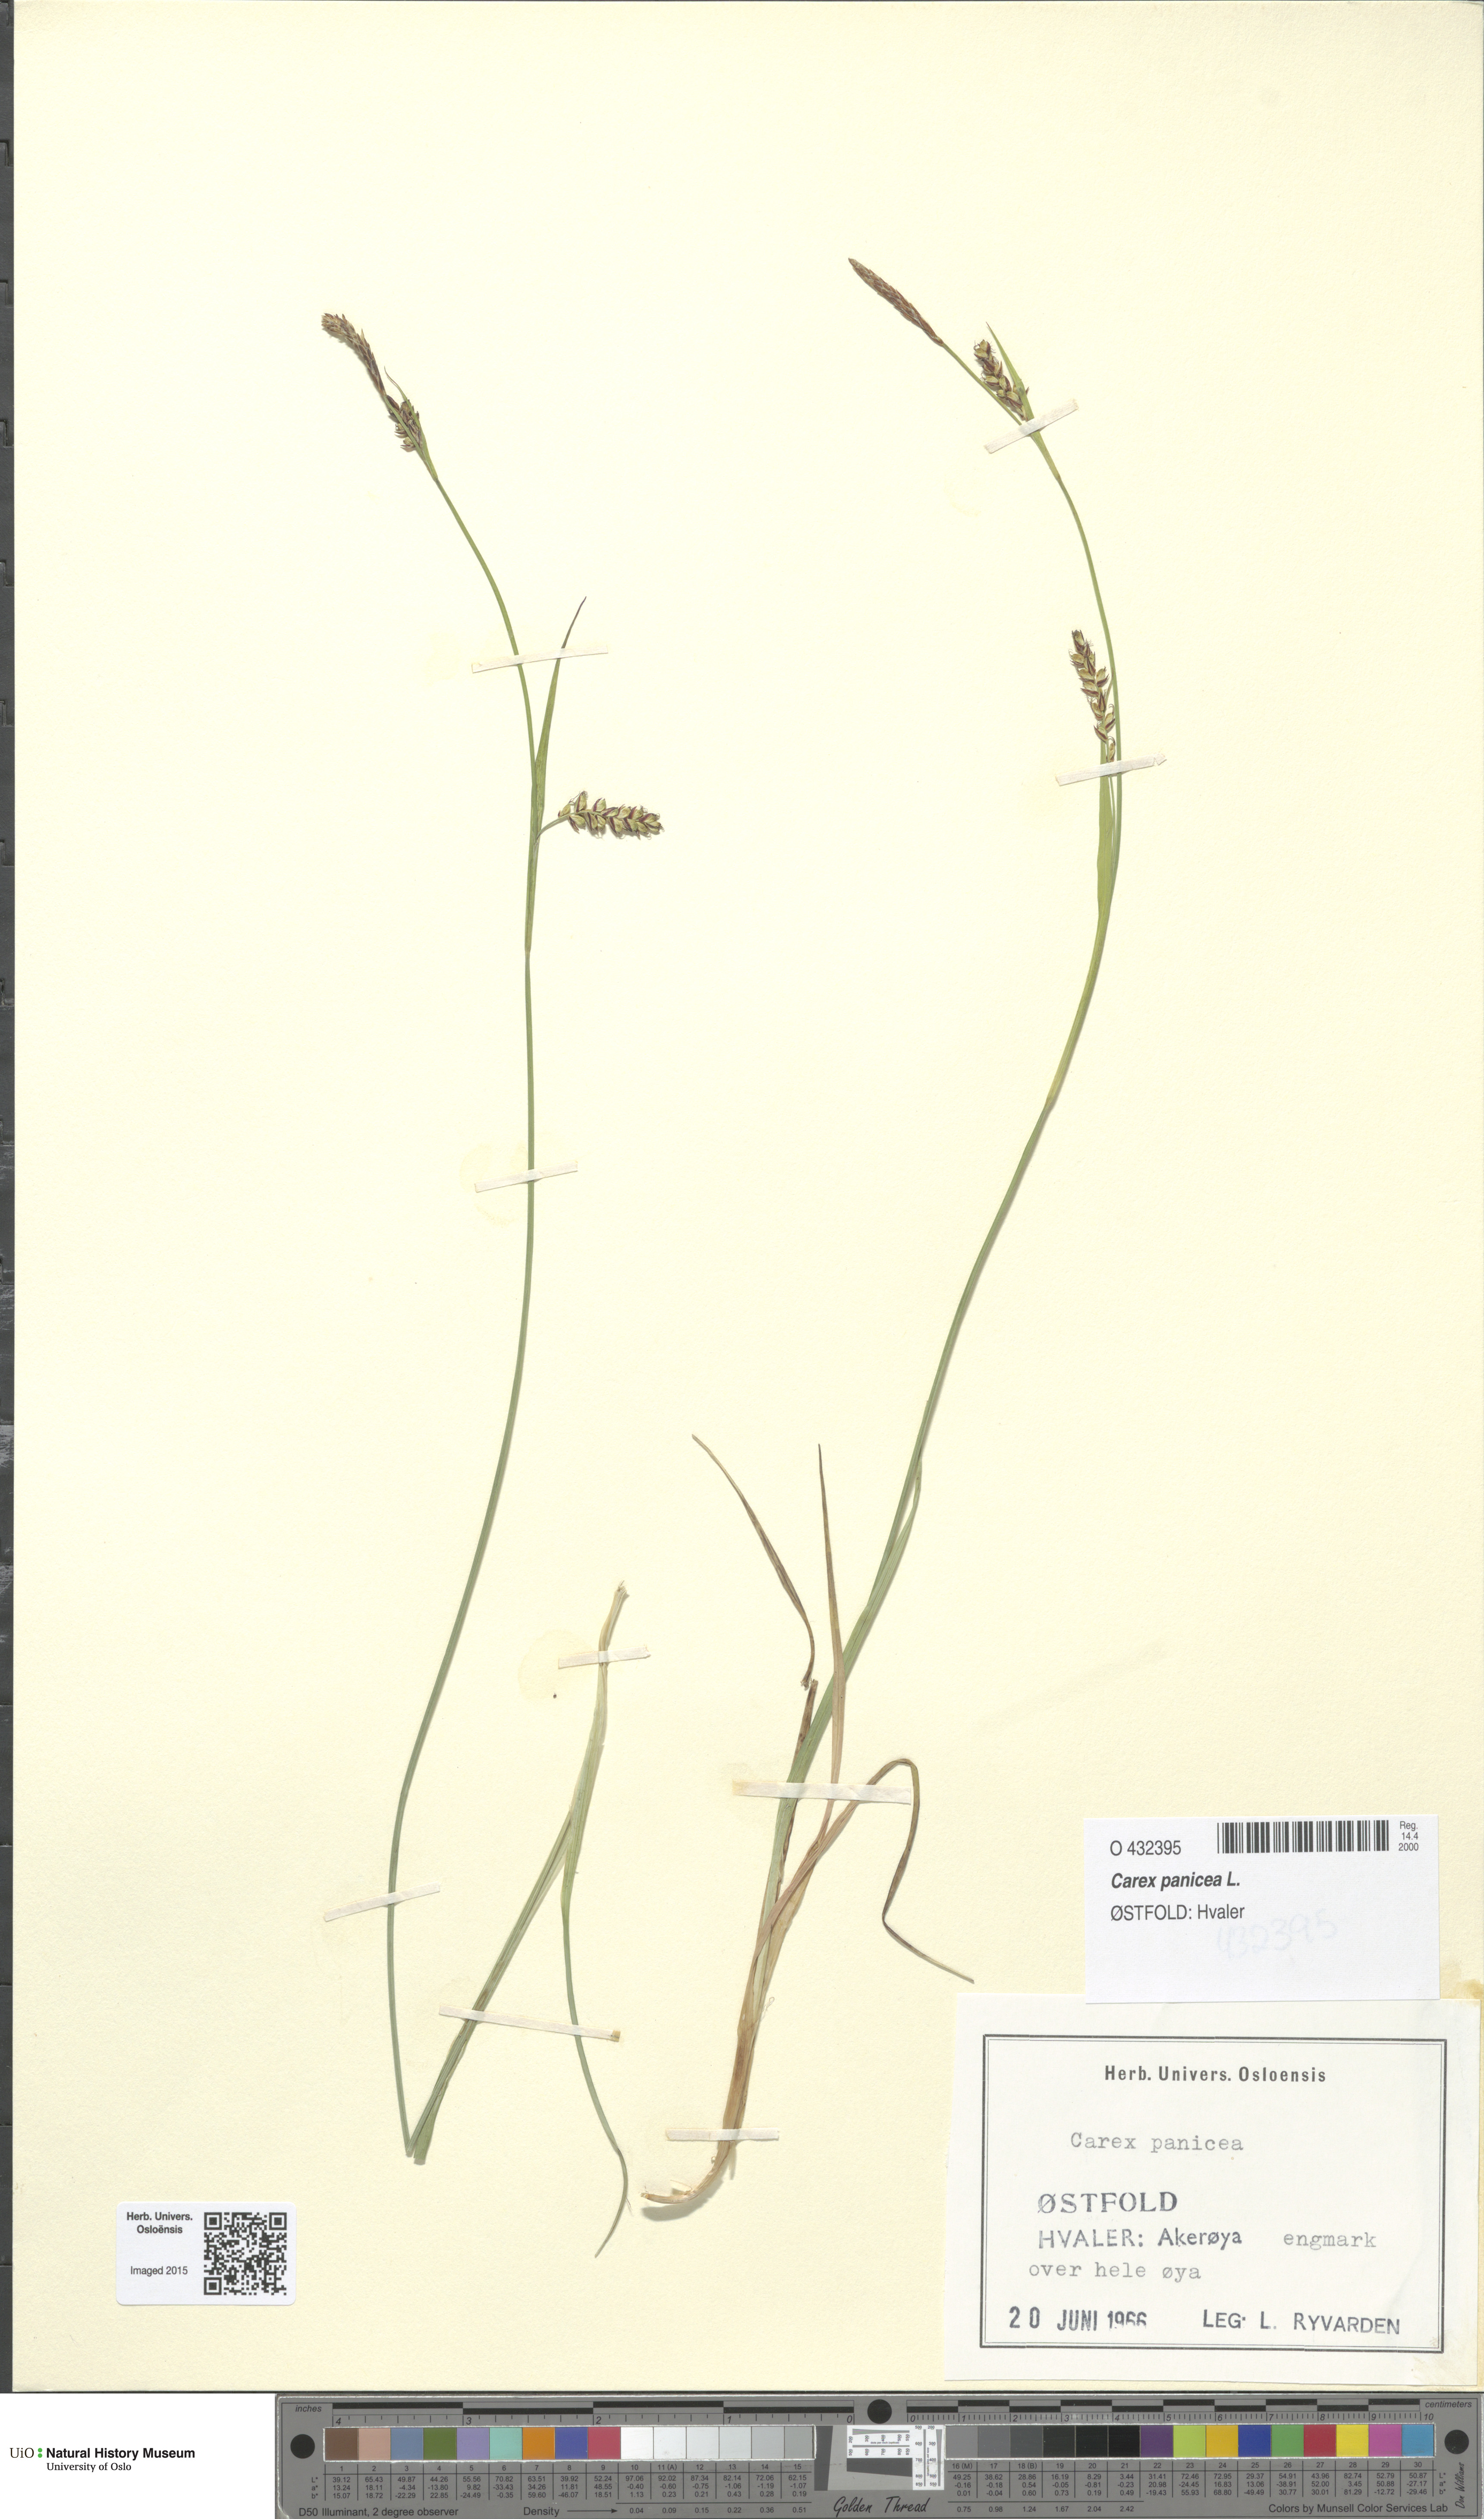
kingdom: Plantae
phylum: Tracheophyta
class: Liliopsida
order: Poales
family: Cyperaceae
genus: Carex
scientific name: Carex panicea
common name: Carnation sedge
